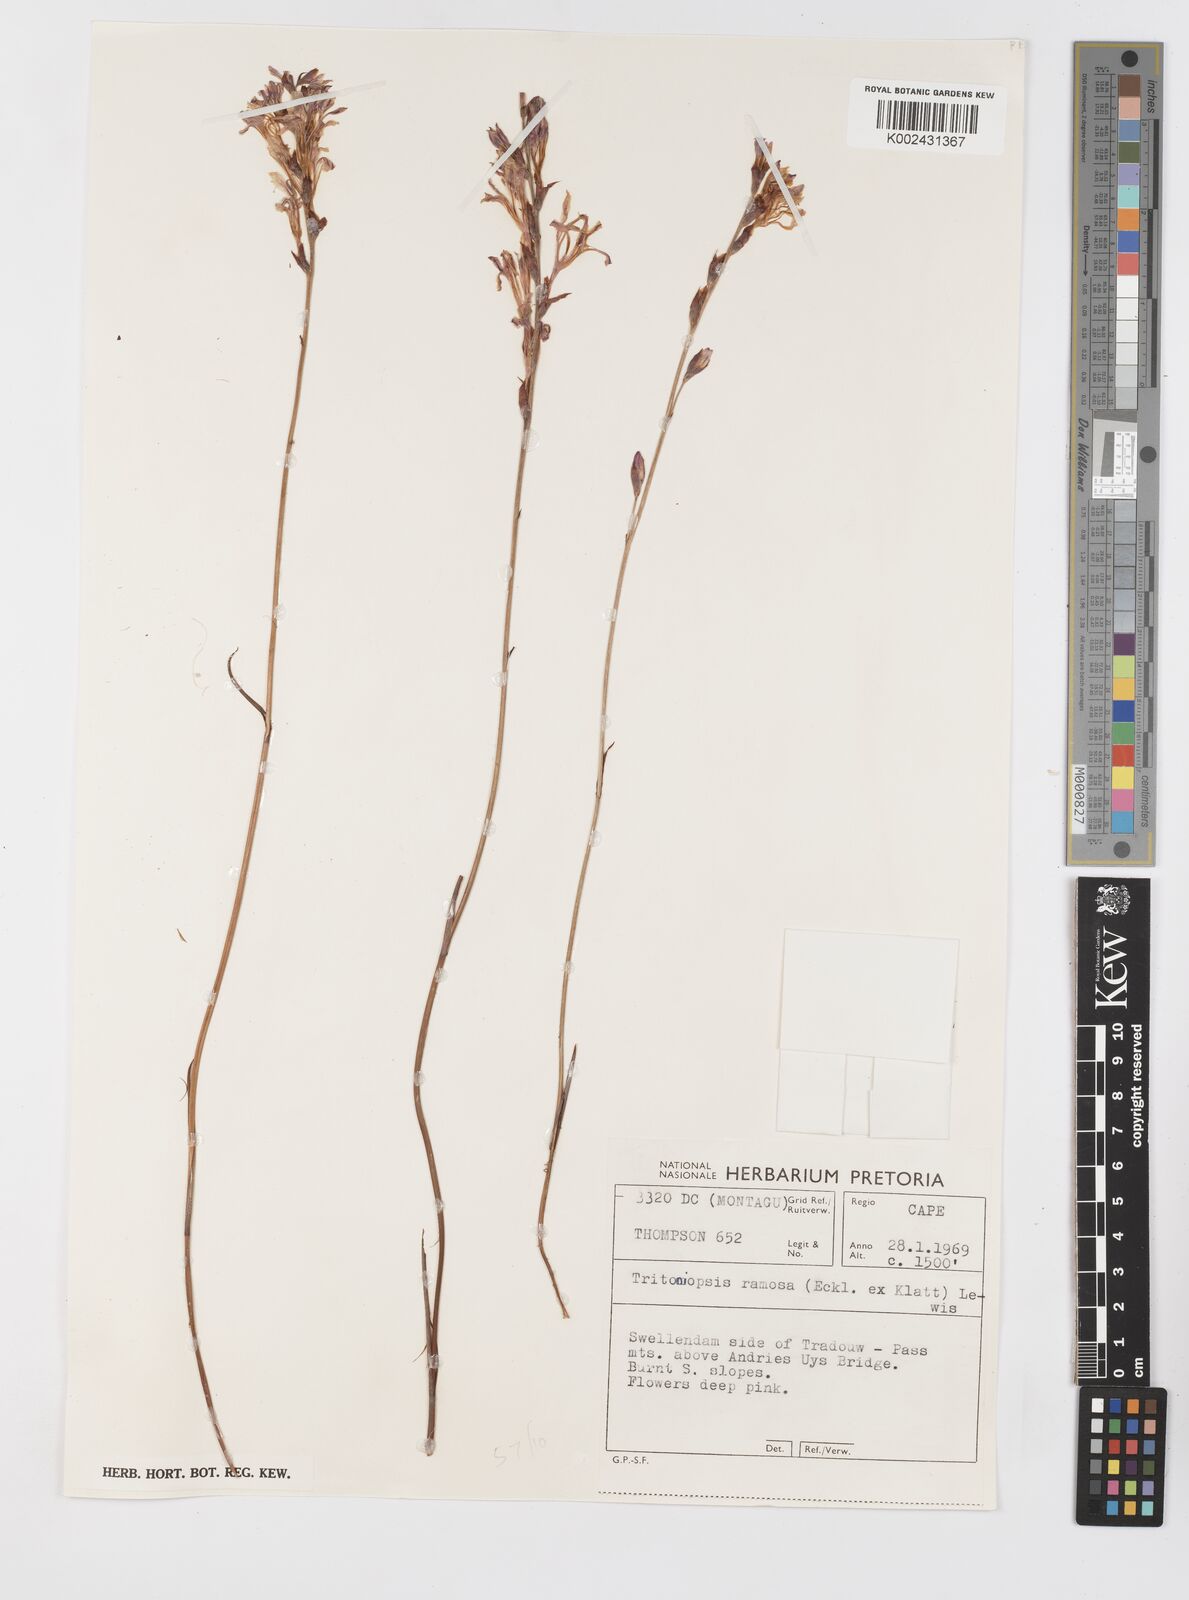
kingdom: Plantae
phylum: Tracheophyta
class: Liliopsida
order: Asparagales
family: Iridaceae
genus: Tritoniopsis
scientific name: Tritoniopsis ramosa
